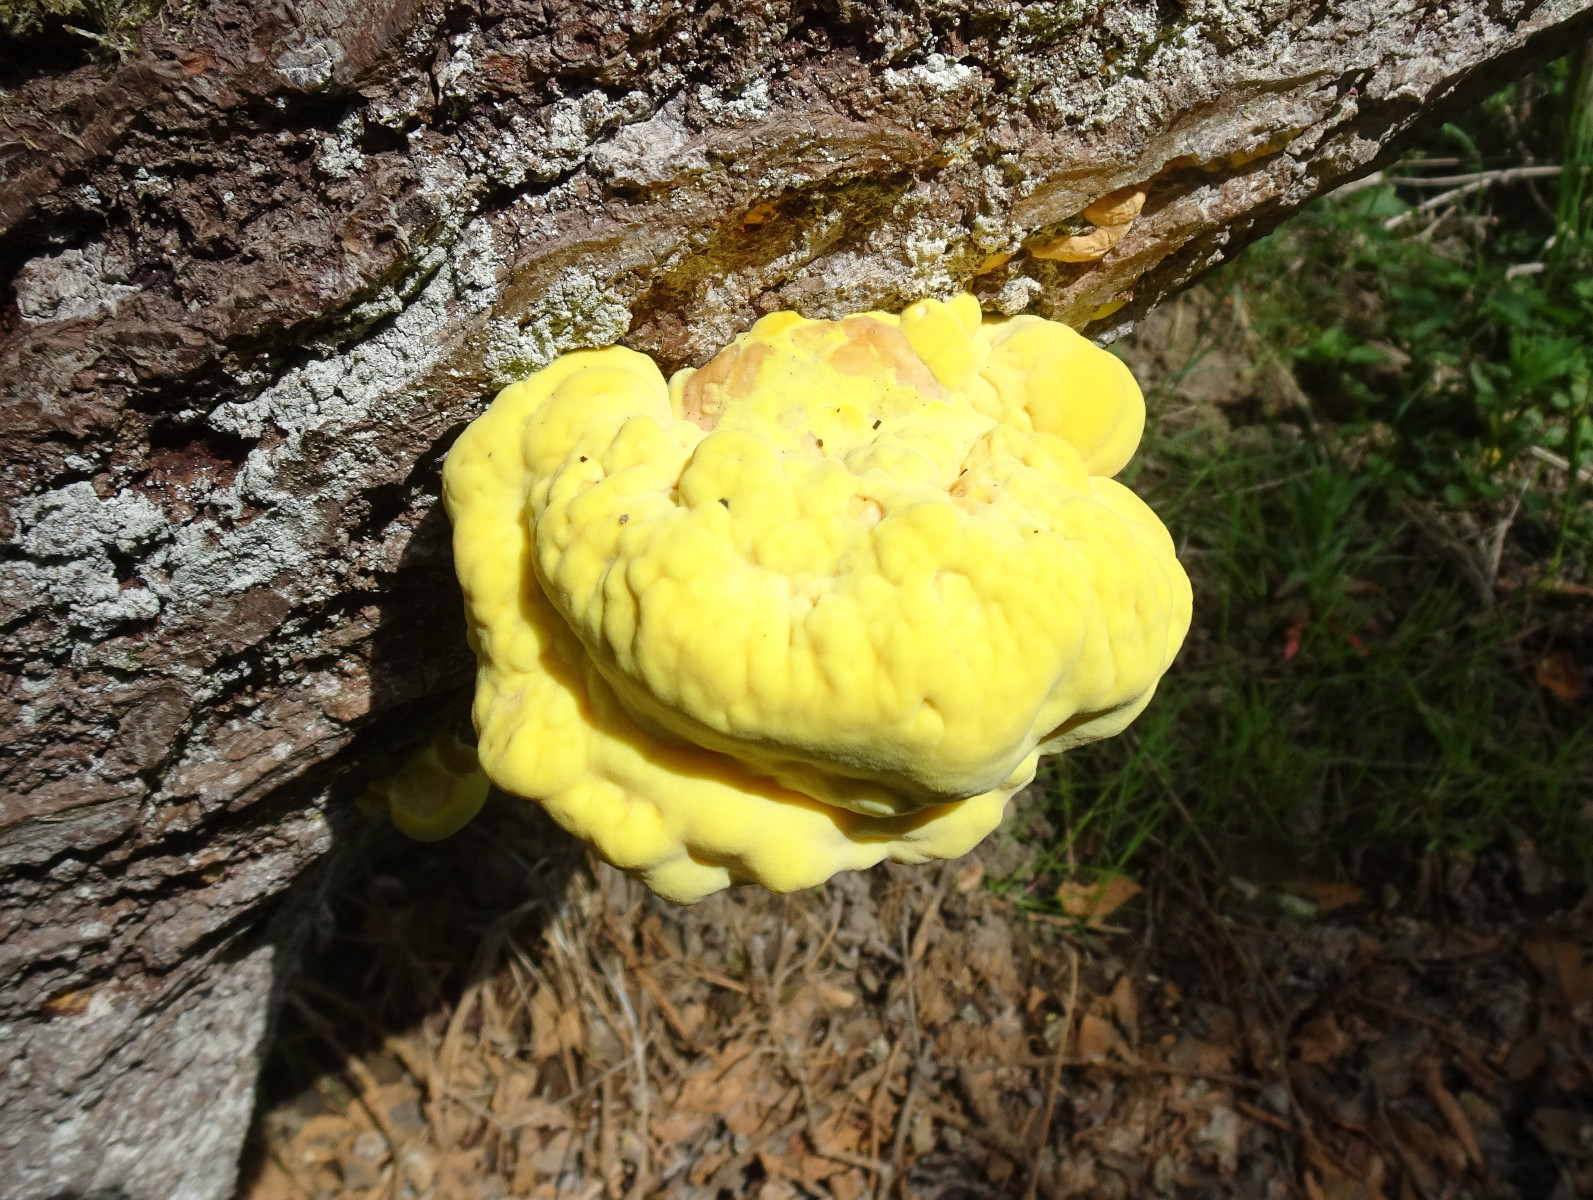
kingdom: Fungi
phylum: Basidiomycota
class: Agaricomycetes
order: Polyporales
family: Laetiporaceae
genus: Laetiporus
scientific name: Laetiporus sulphureus
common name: svovlporesvamp
